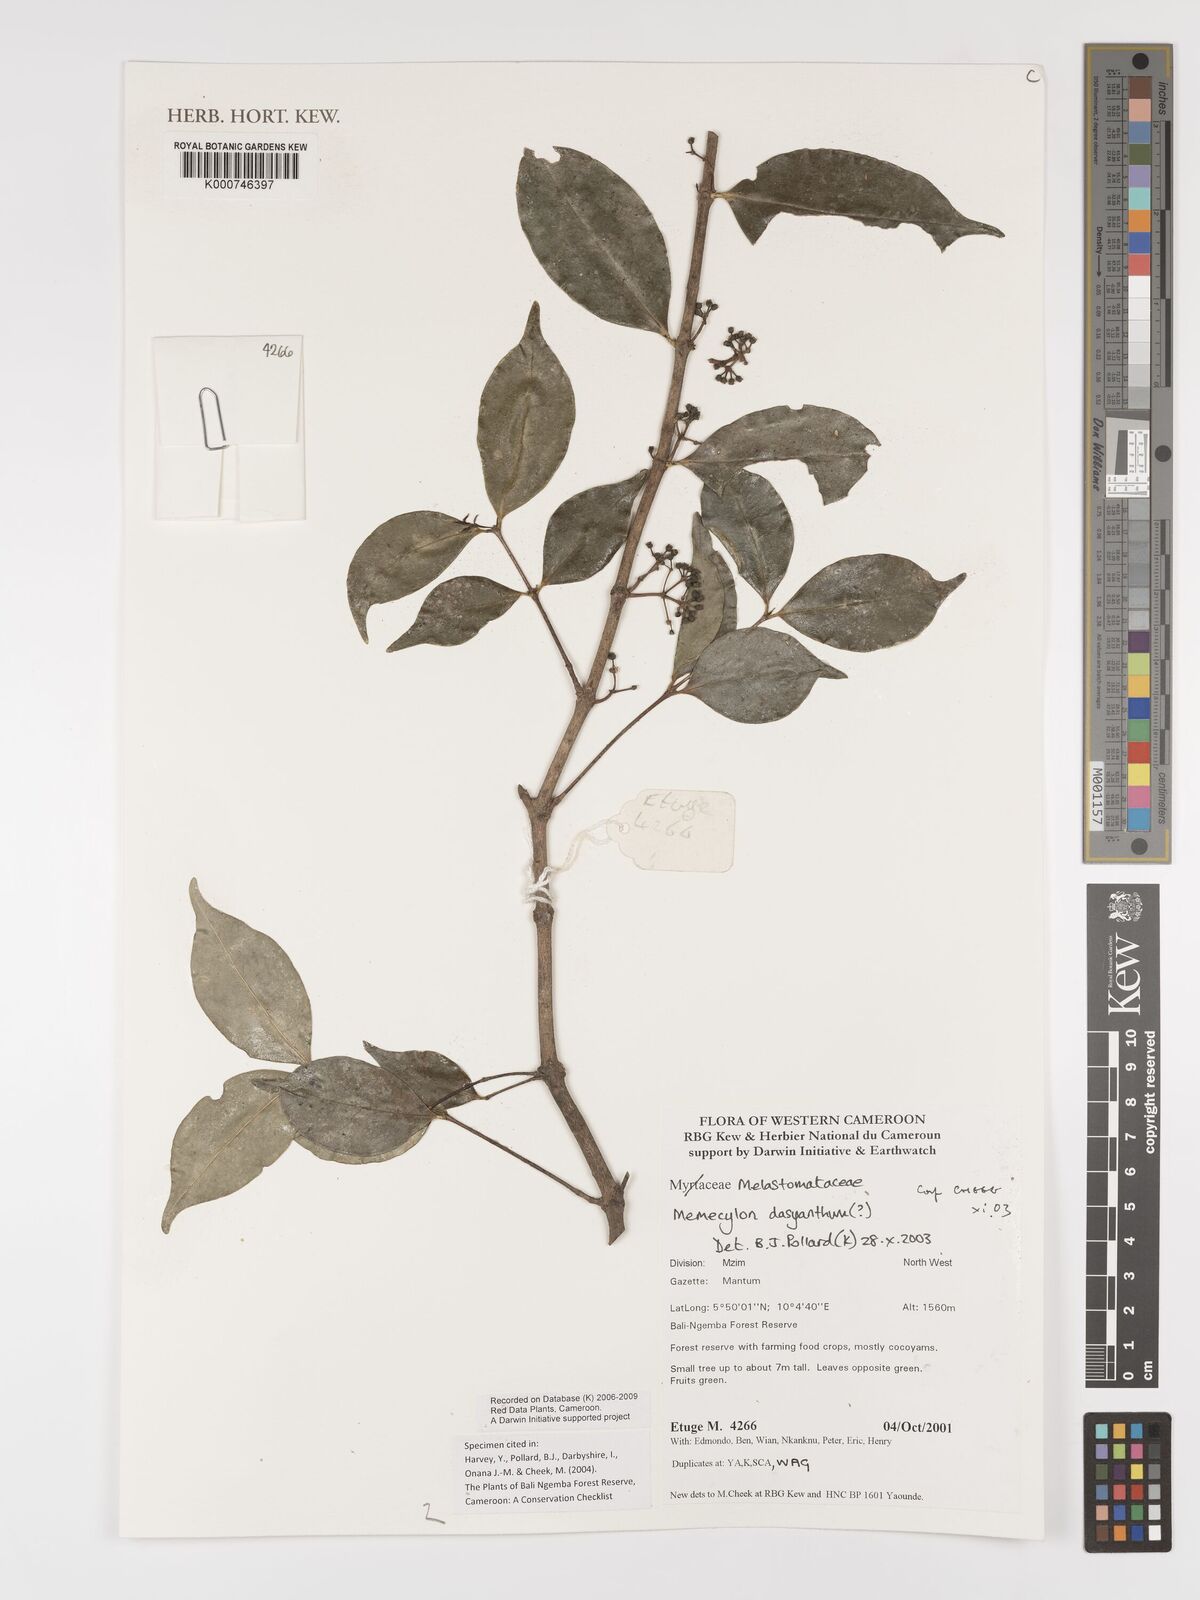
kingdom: Plantae
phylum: Tracheophyta
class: Magnoliopsida
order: Myrtales
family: Melastomataceae
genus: Memecylon
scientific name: Memecylon dasyanthum
